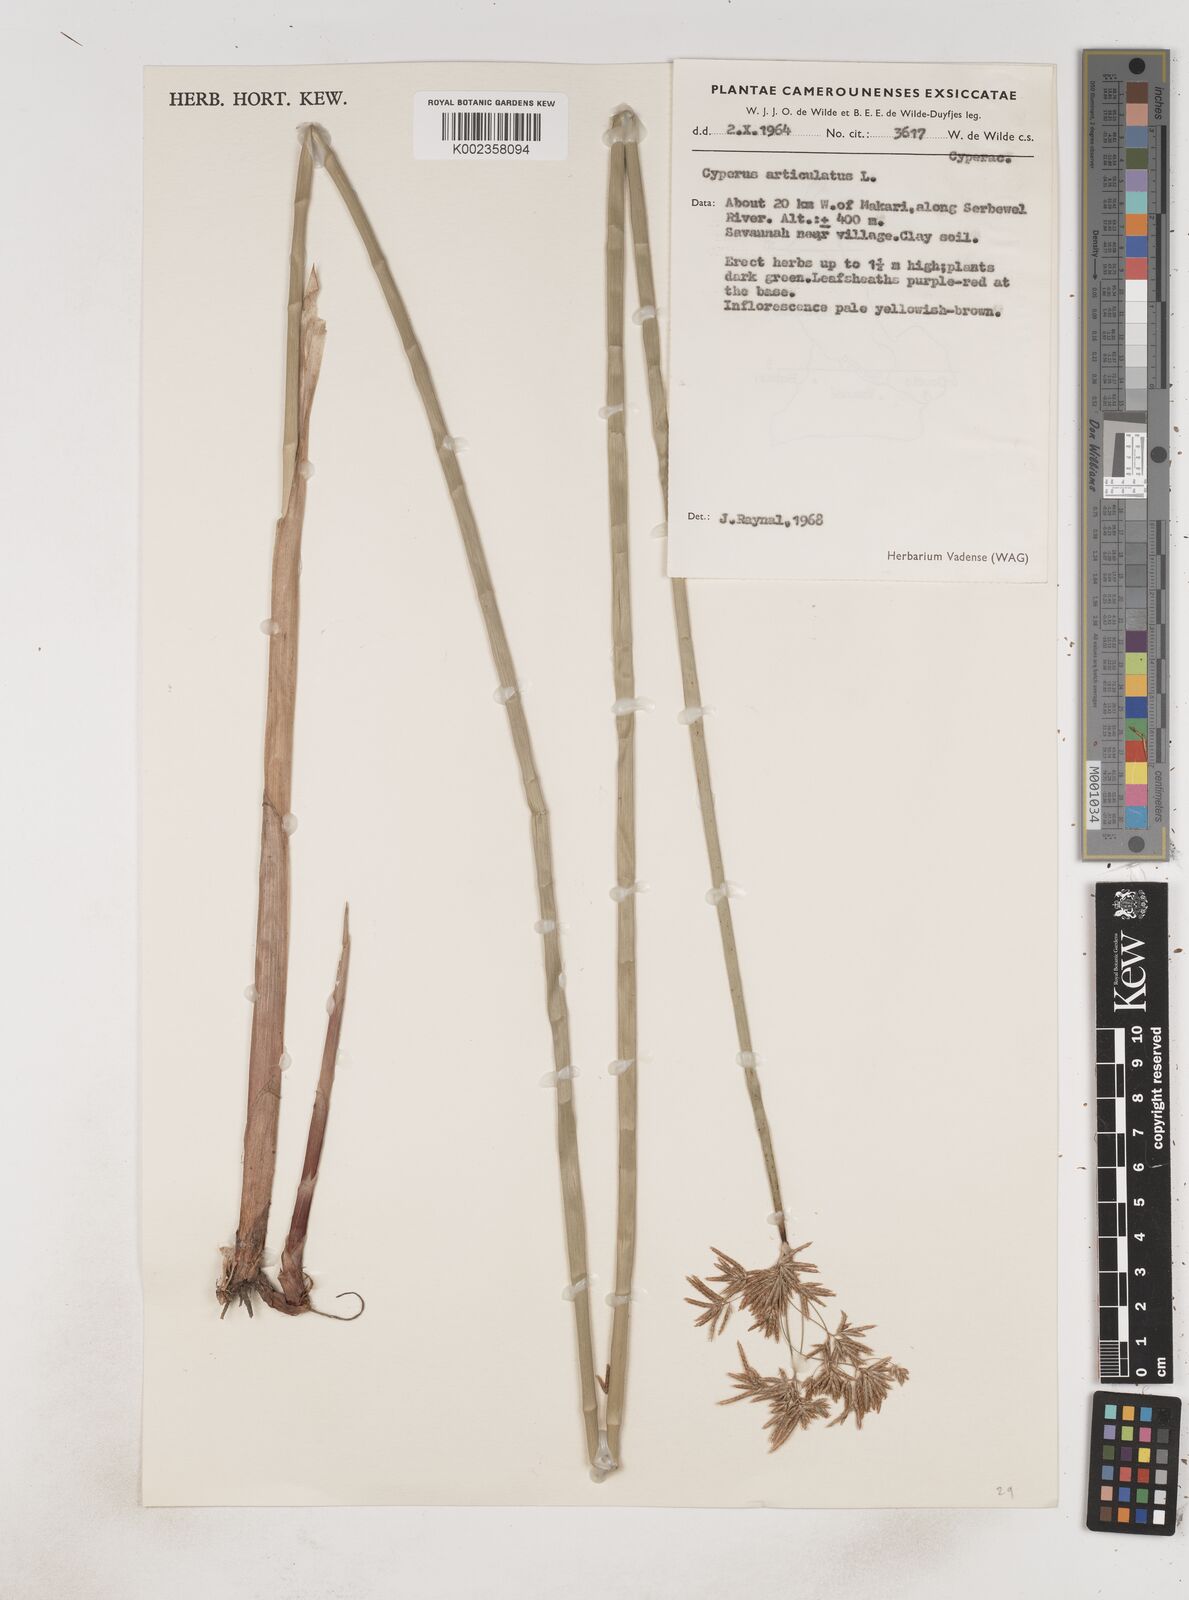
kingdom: Plantae
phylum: Tracheophyta
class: Liliopsida
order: Poales
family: Cyperaceae
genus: Cyperus
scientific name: Cyperus articulatus
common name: Jointed flatsedge
